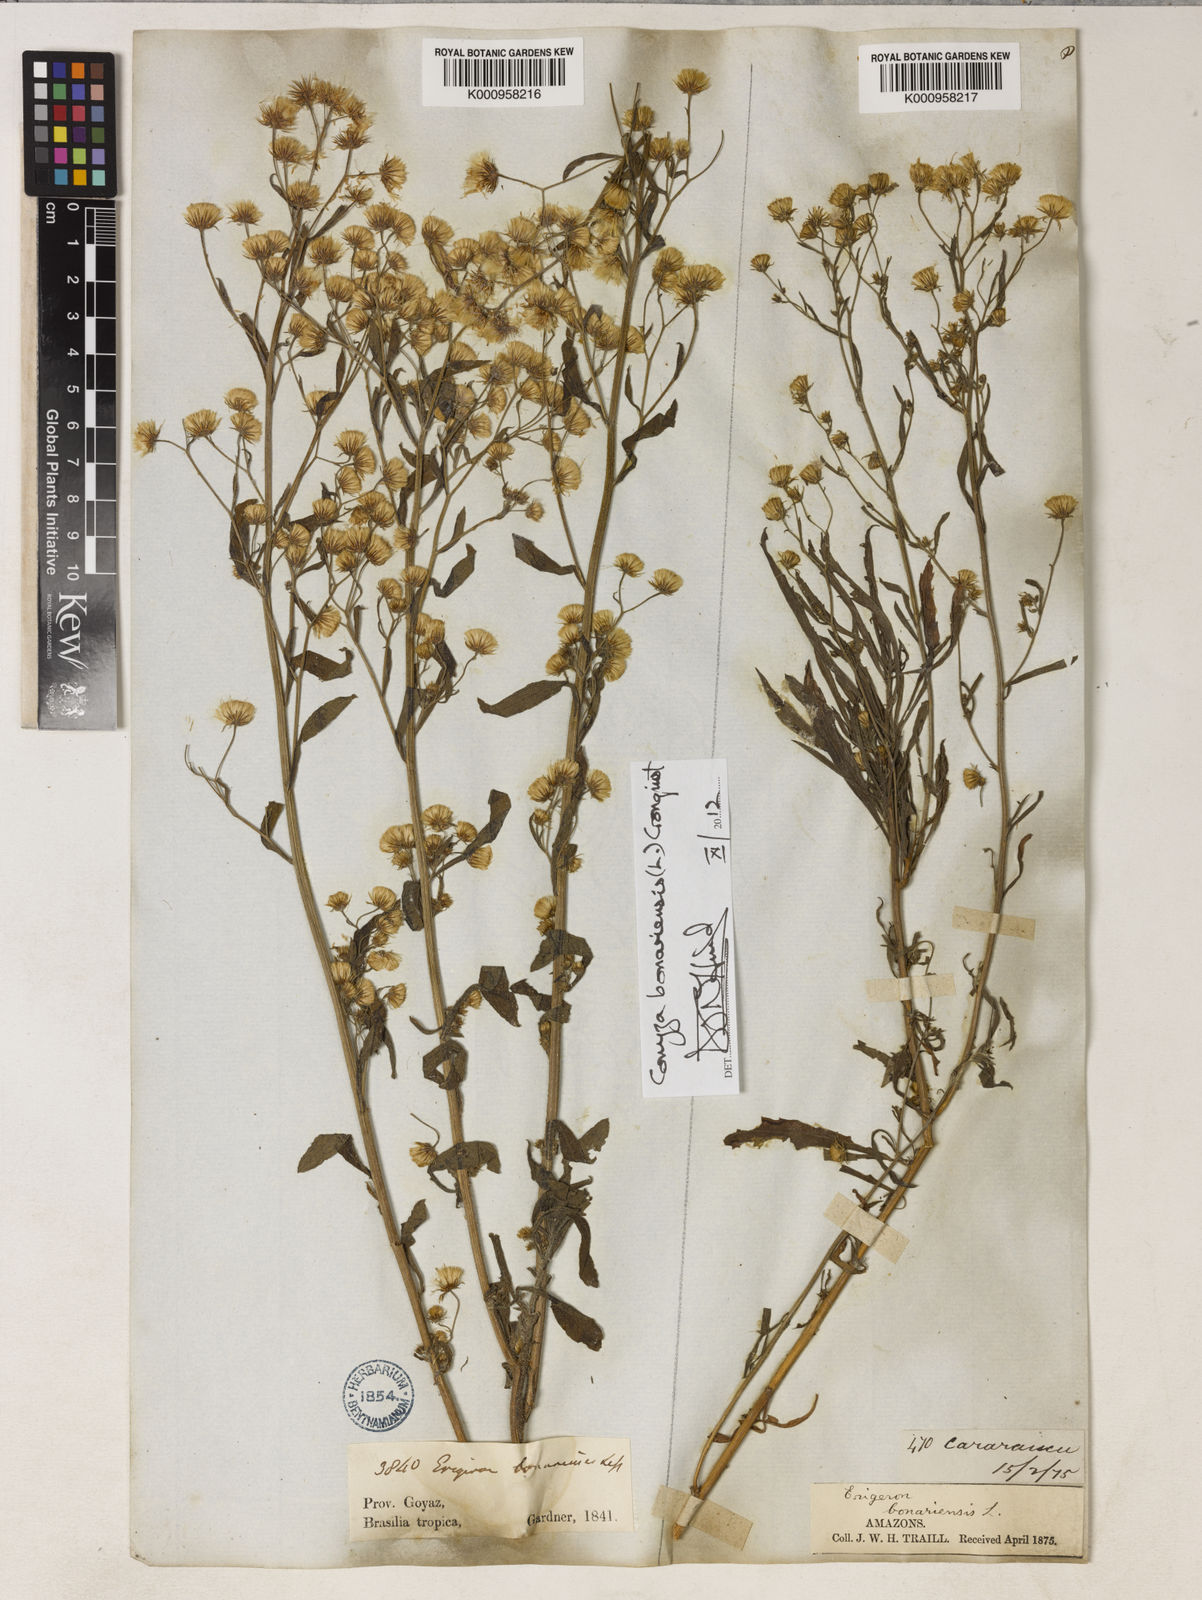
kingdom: Plantae
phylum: Tracheophyta
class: Magnoliopsida
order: Asterales
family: Asteraceae
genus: Erigeron
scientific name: Erigeron bonariensis
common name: Argentine fleabane
